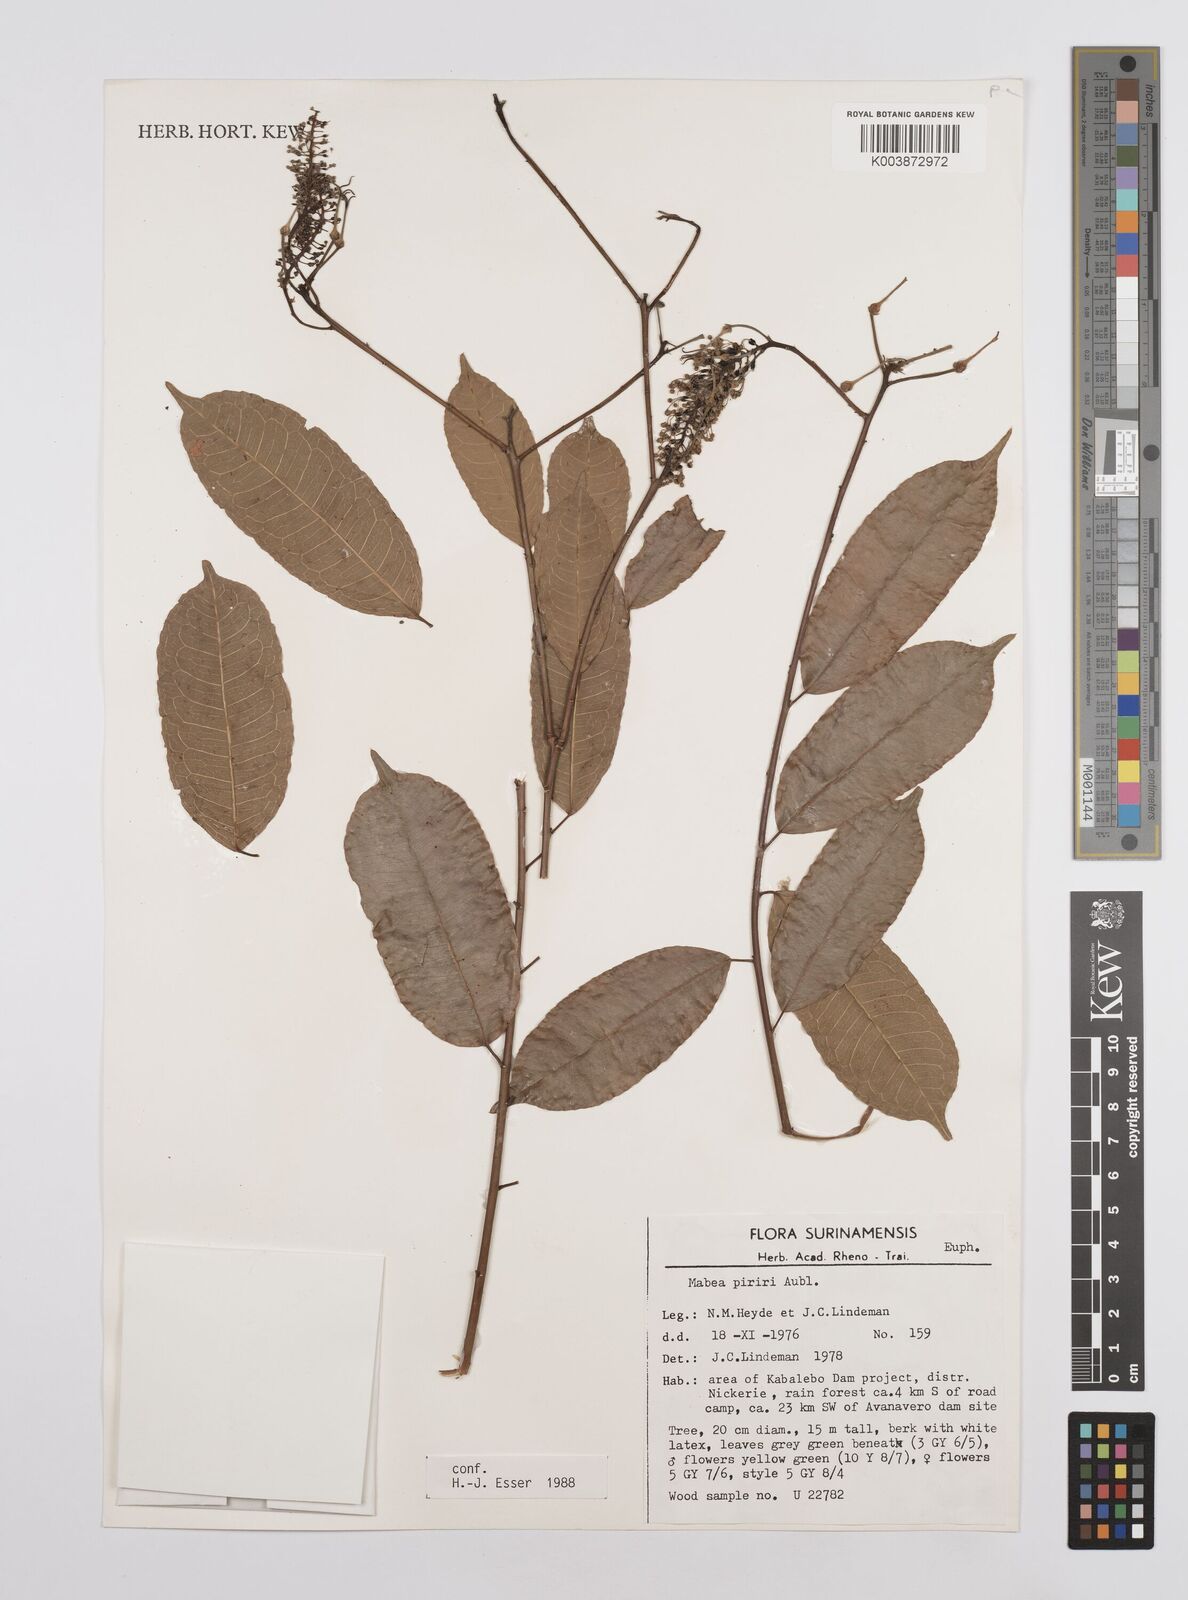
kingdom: Plantae
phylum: Tracheophyta
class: Magnoliopsida
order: Malpighiales
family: Euphorbiaceae
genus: Mabea
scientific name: Mabea piriri
